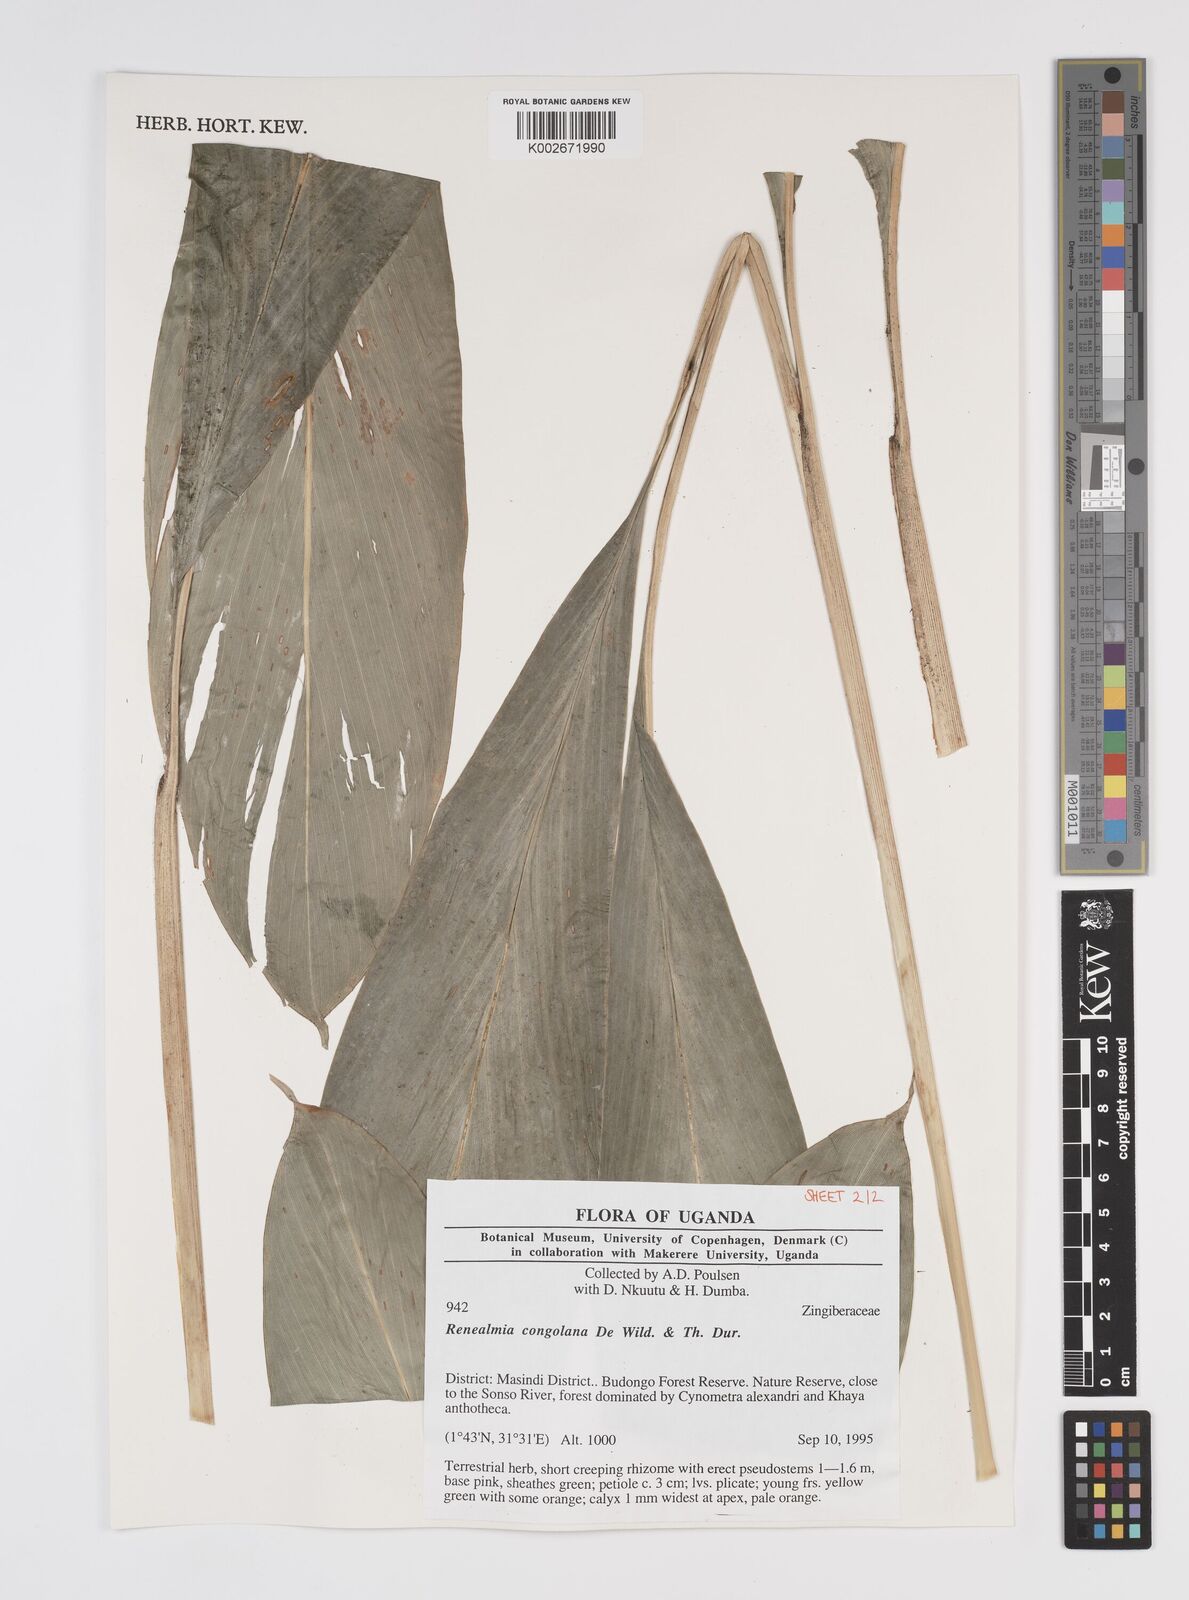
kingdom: Plantae
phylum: Tracheophyta
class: Liliopsida
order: Zingiberales
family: Zingiberaceae
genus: Renealmia
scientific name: Renealmia congolana
